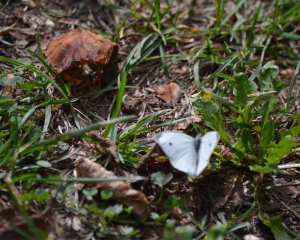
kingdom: Animalia
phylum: Arthropoda
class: Insecta
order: Lepidoptera
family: Pieridae
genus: Pieris
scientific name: Pieris rapae
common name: Cabbage White
